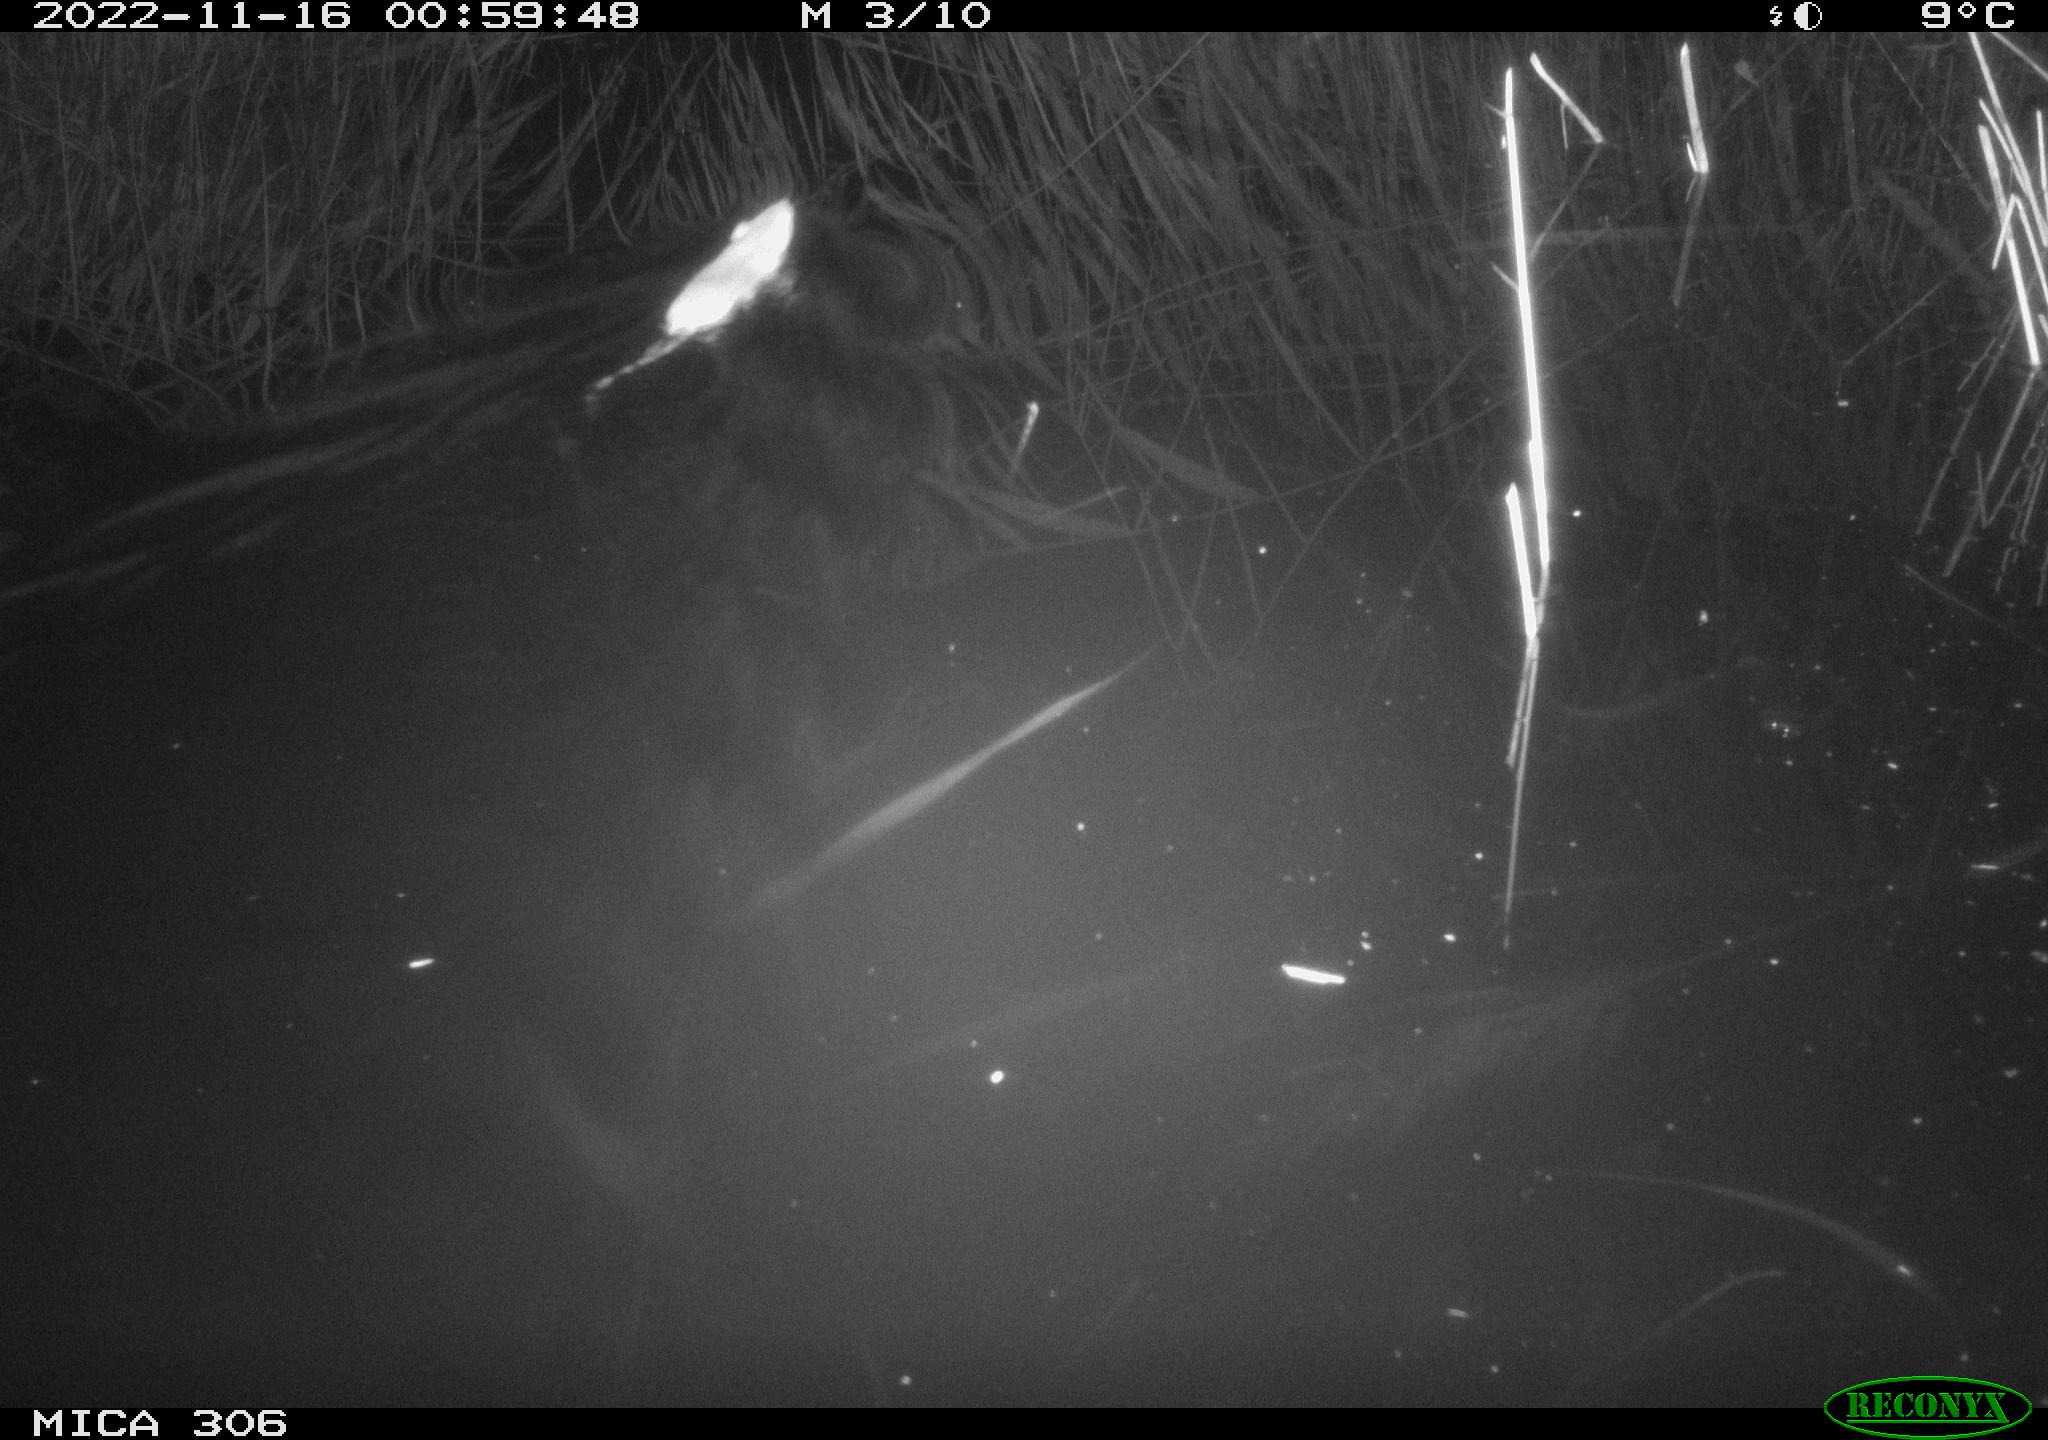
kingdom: Animalia
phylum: Chordata
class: Mammalia
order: Rodentia
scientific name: Rodentia
